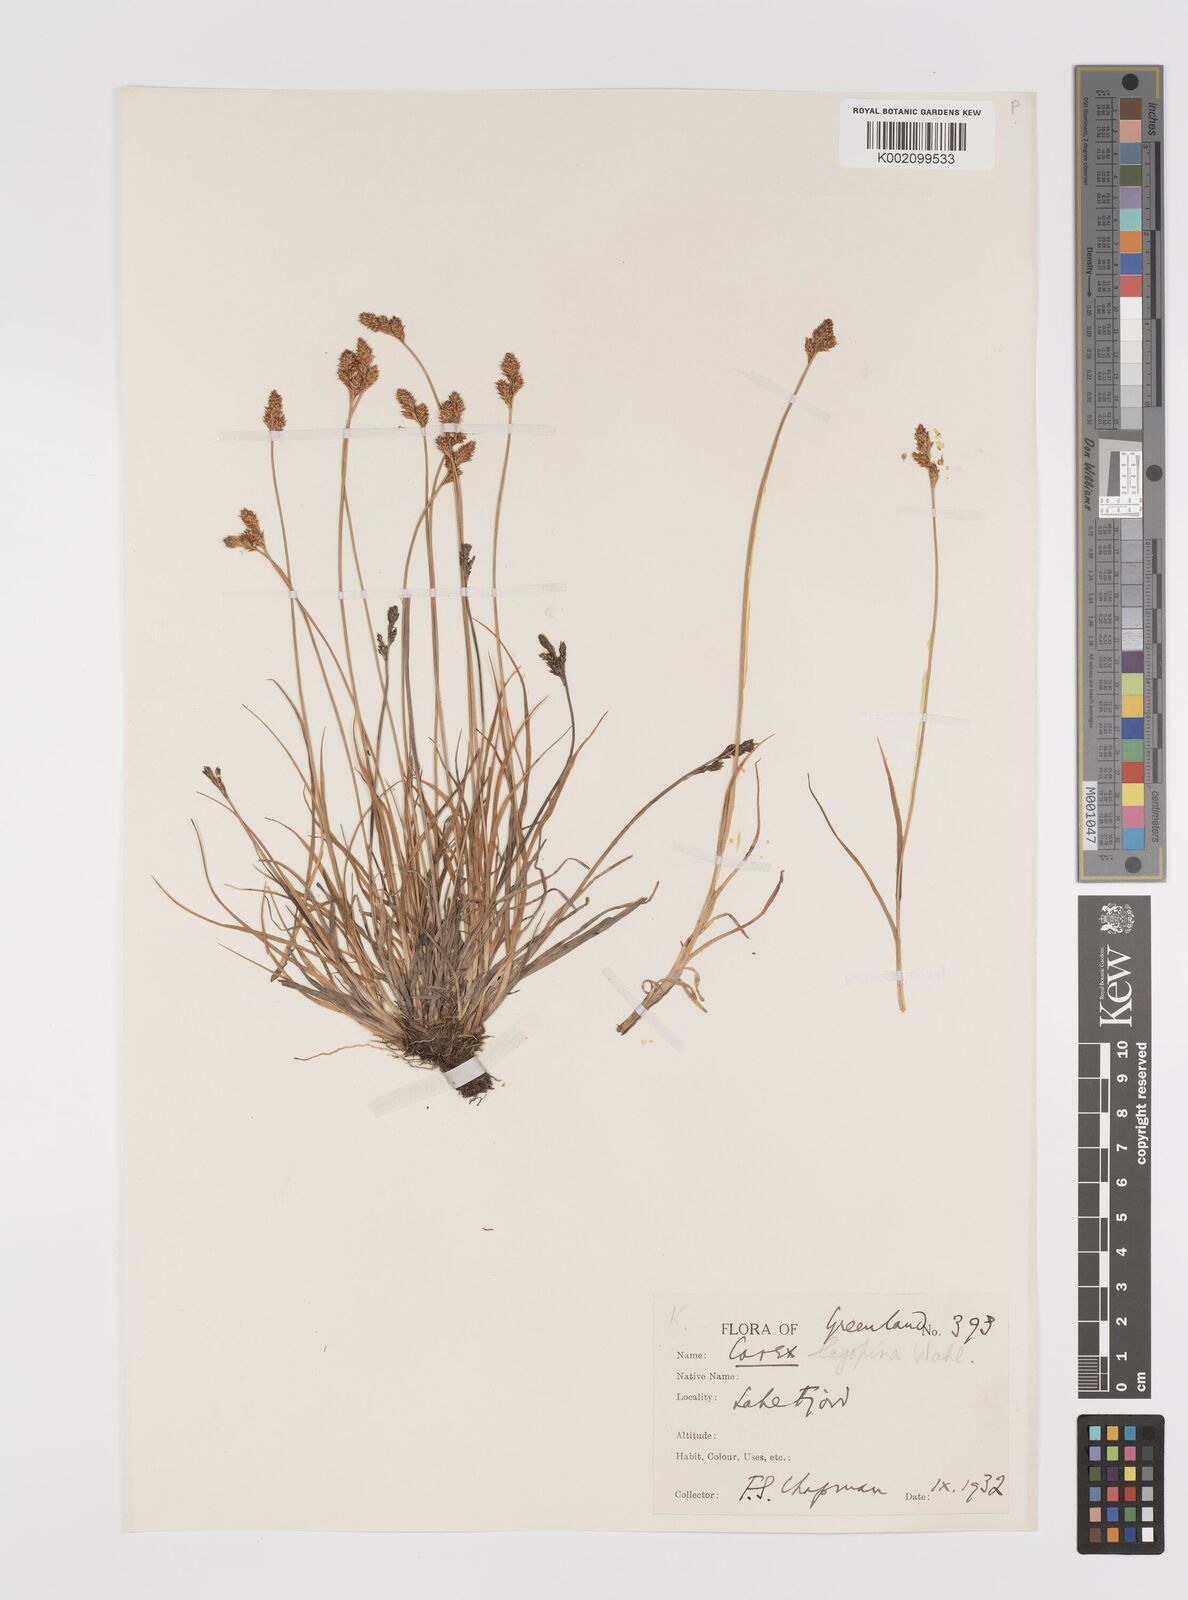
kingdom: Plantae
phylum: Tracheophyta
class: Liliopsida
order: Poales
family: Cyperaceae
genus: Carex
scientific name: Carex lachenalii
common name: Hare's-foot sedge
